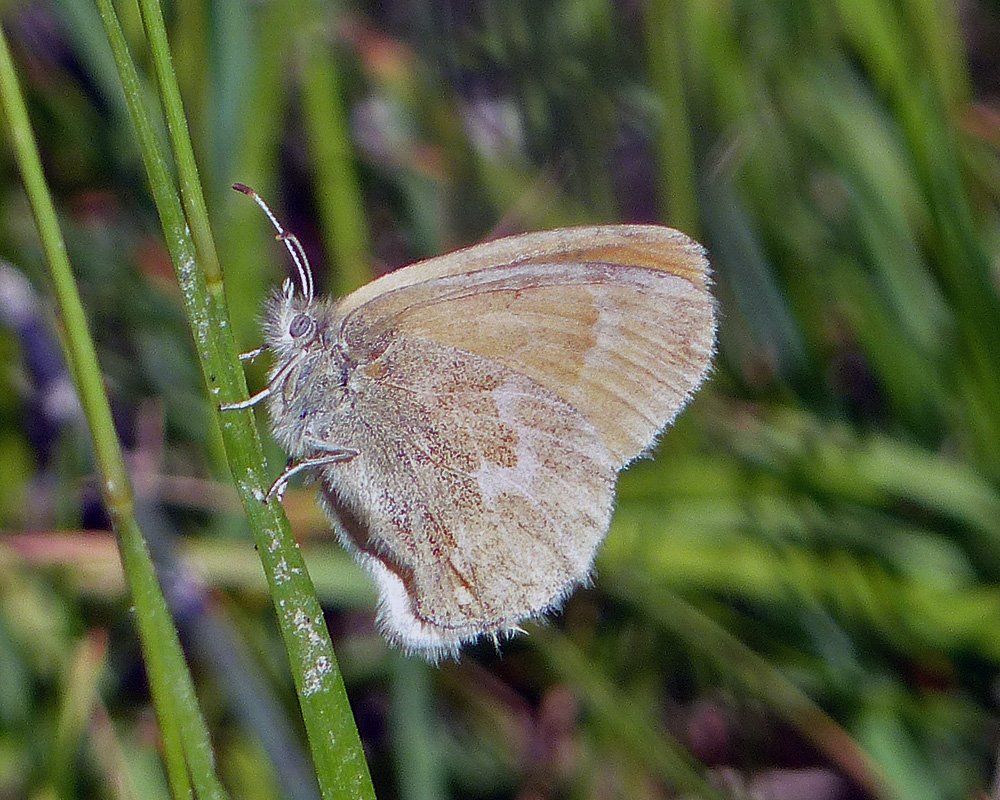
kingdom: Animalia
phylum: Arthropoda
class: Insecta
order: Lepidoptera
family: Nymphalidae
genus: Coenonympha
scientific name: Coenonympha tullia
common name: Large Heath
